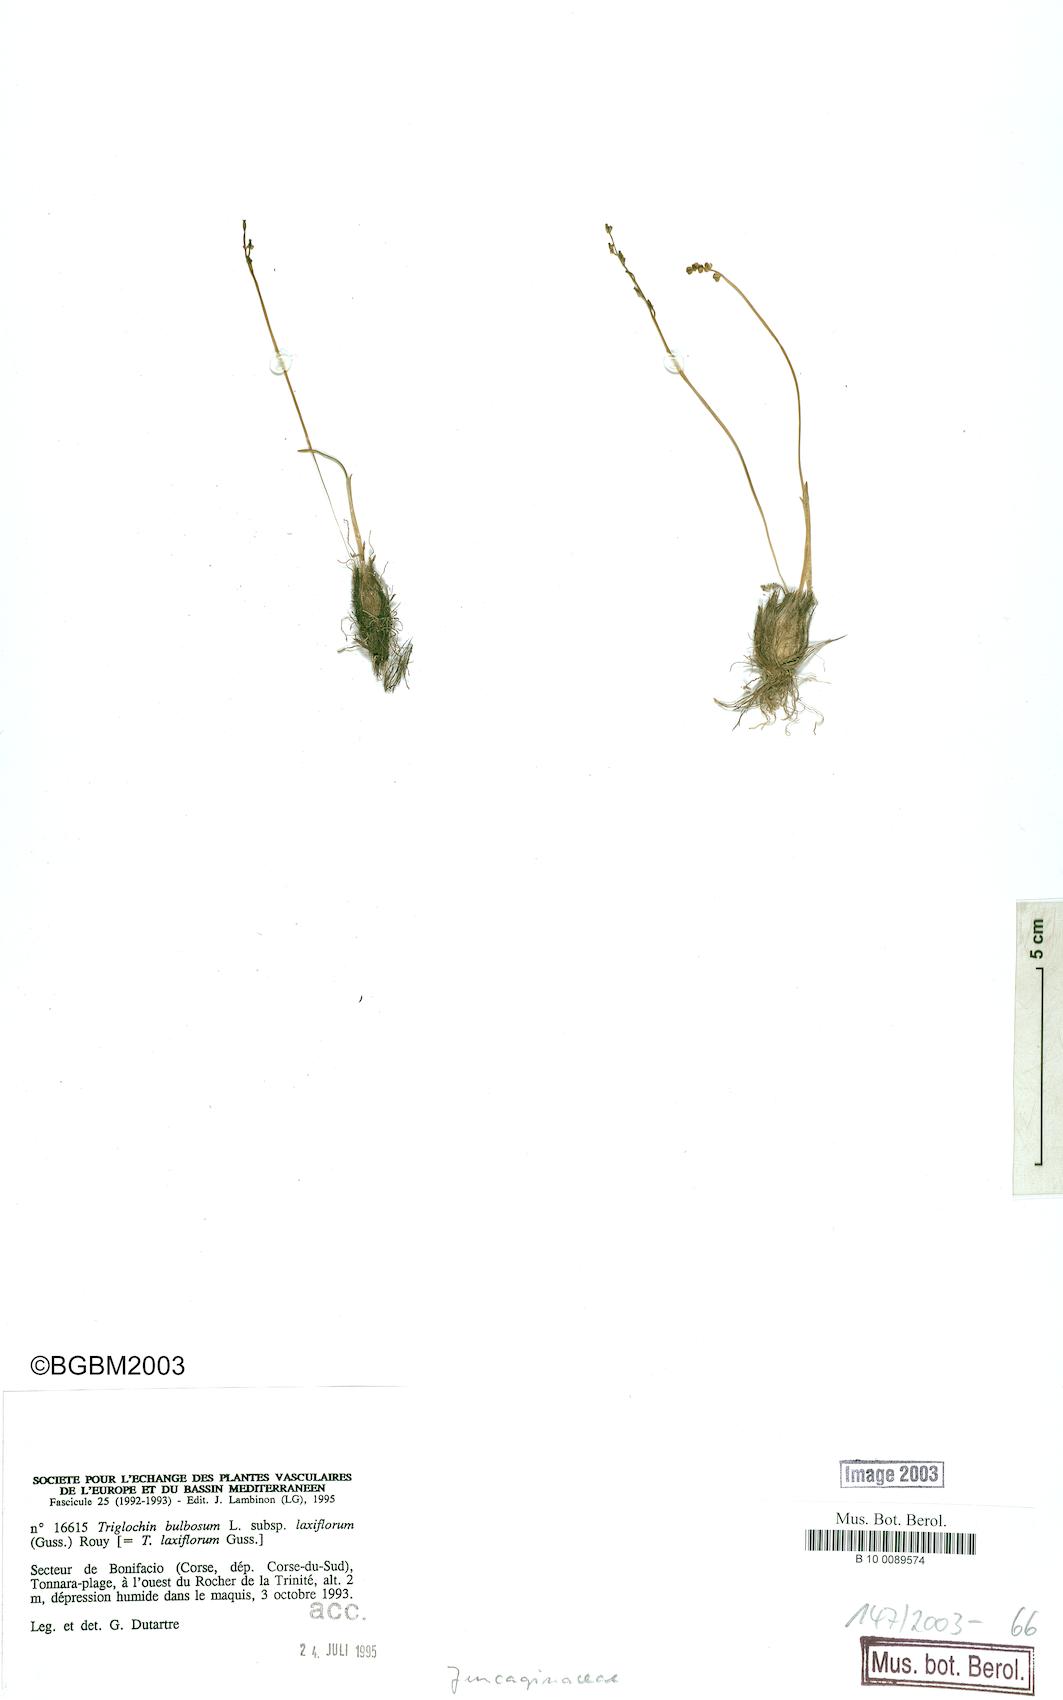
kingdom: Plantae
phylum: Tracheophyta
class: Liliopsida
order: Alismatales
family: Juncaginaceae
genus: Triglochin
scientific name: Triglochin laxiflora
